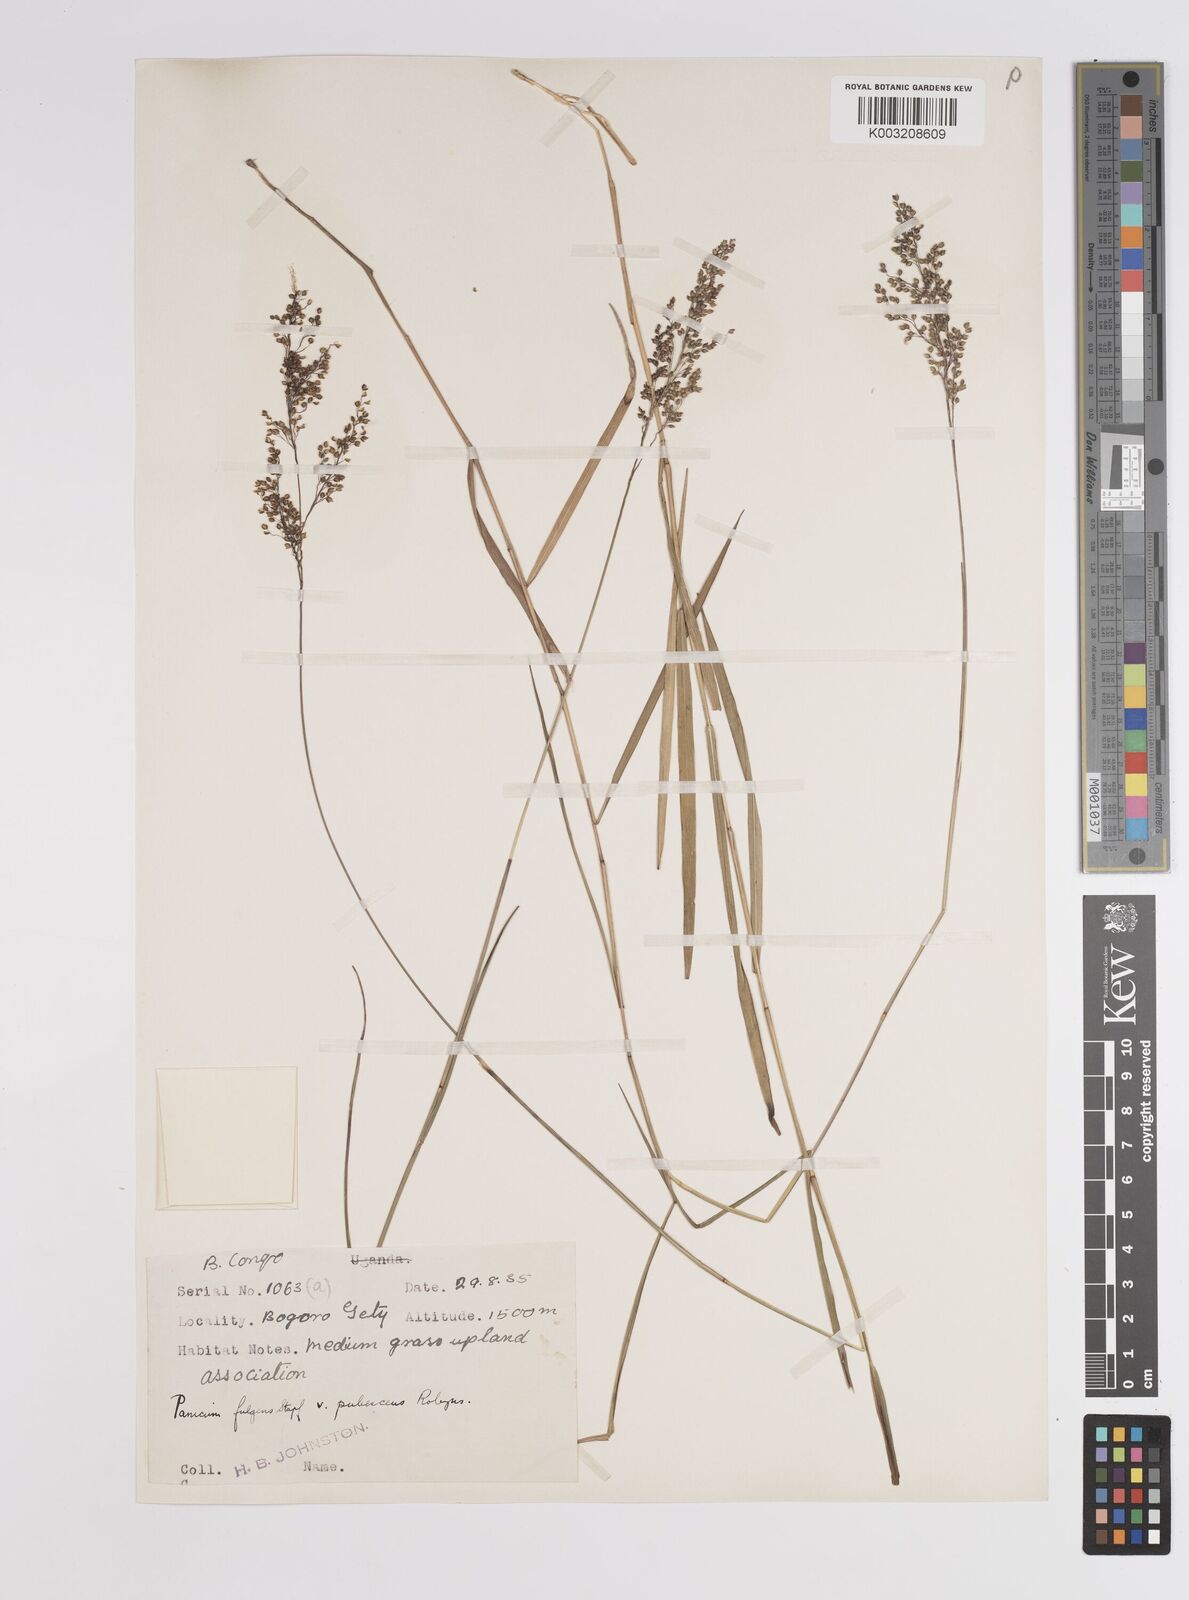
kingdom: Plantae
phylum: Tracheophyta
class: Liliopsida
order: Poales
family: Poaceae
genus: Trichanthecium
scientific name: Trichanthecium nervatum
